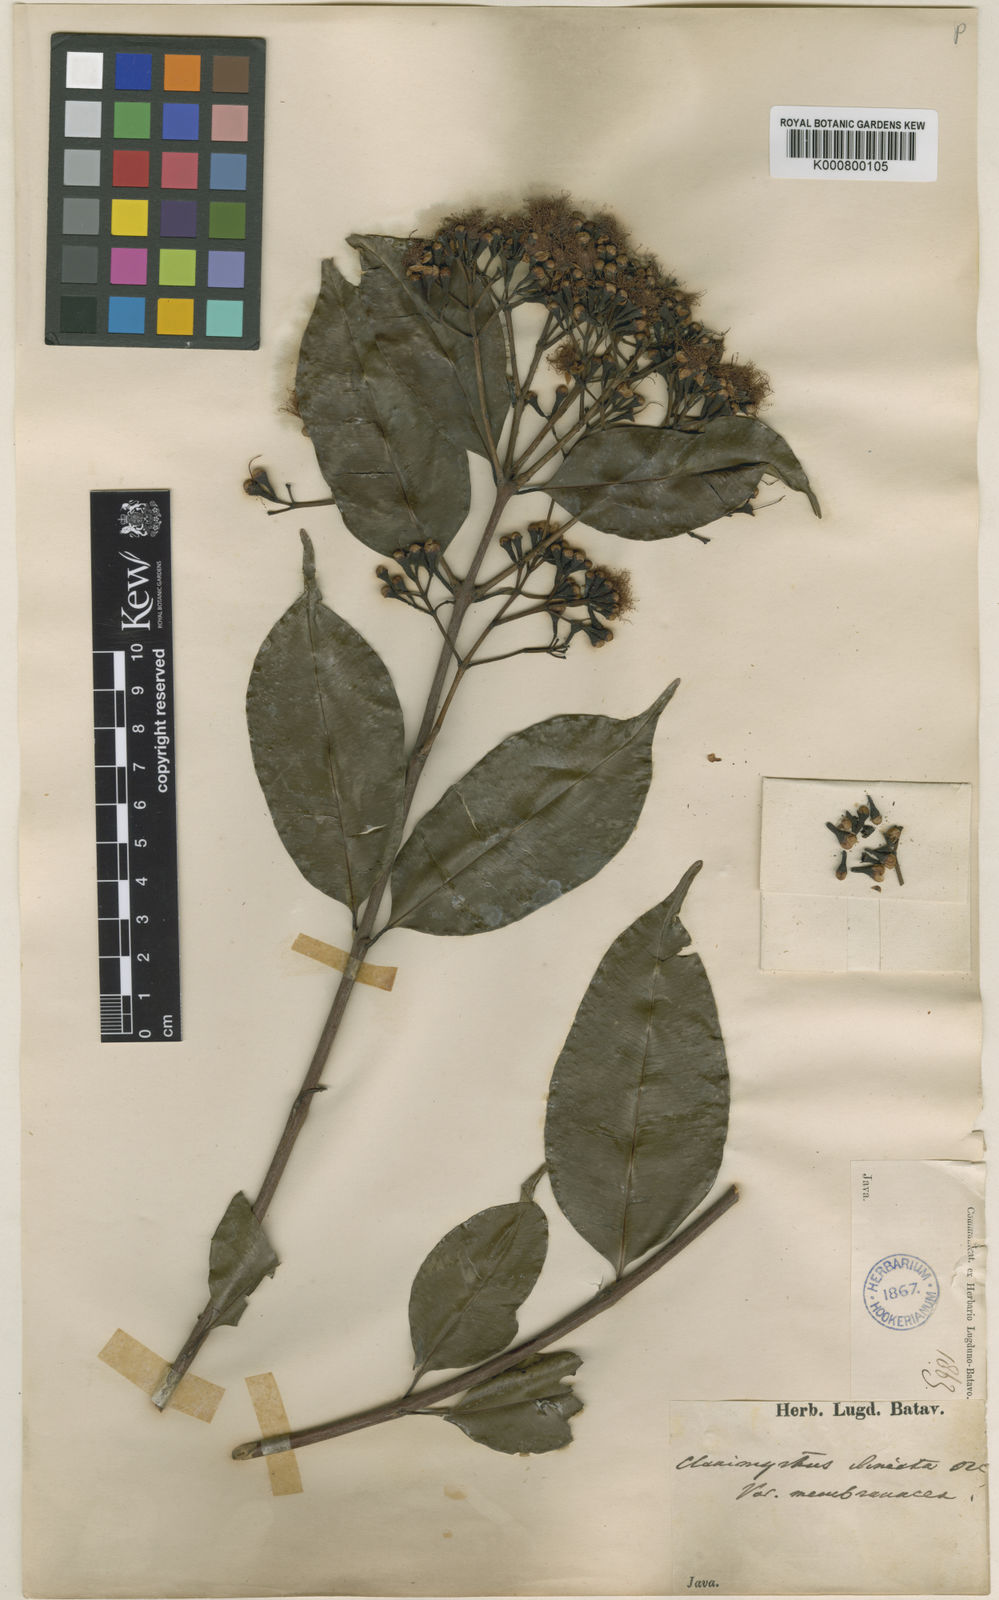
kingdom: Plantae
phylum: Tracheophyta
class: Magnoliopsida
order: Myrtales
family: Myrtaceae
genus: Syzygium
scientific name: Syzygium lineatum
